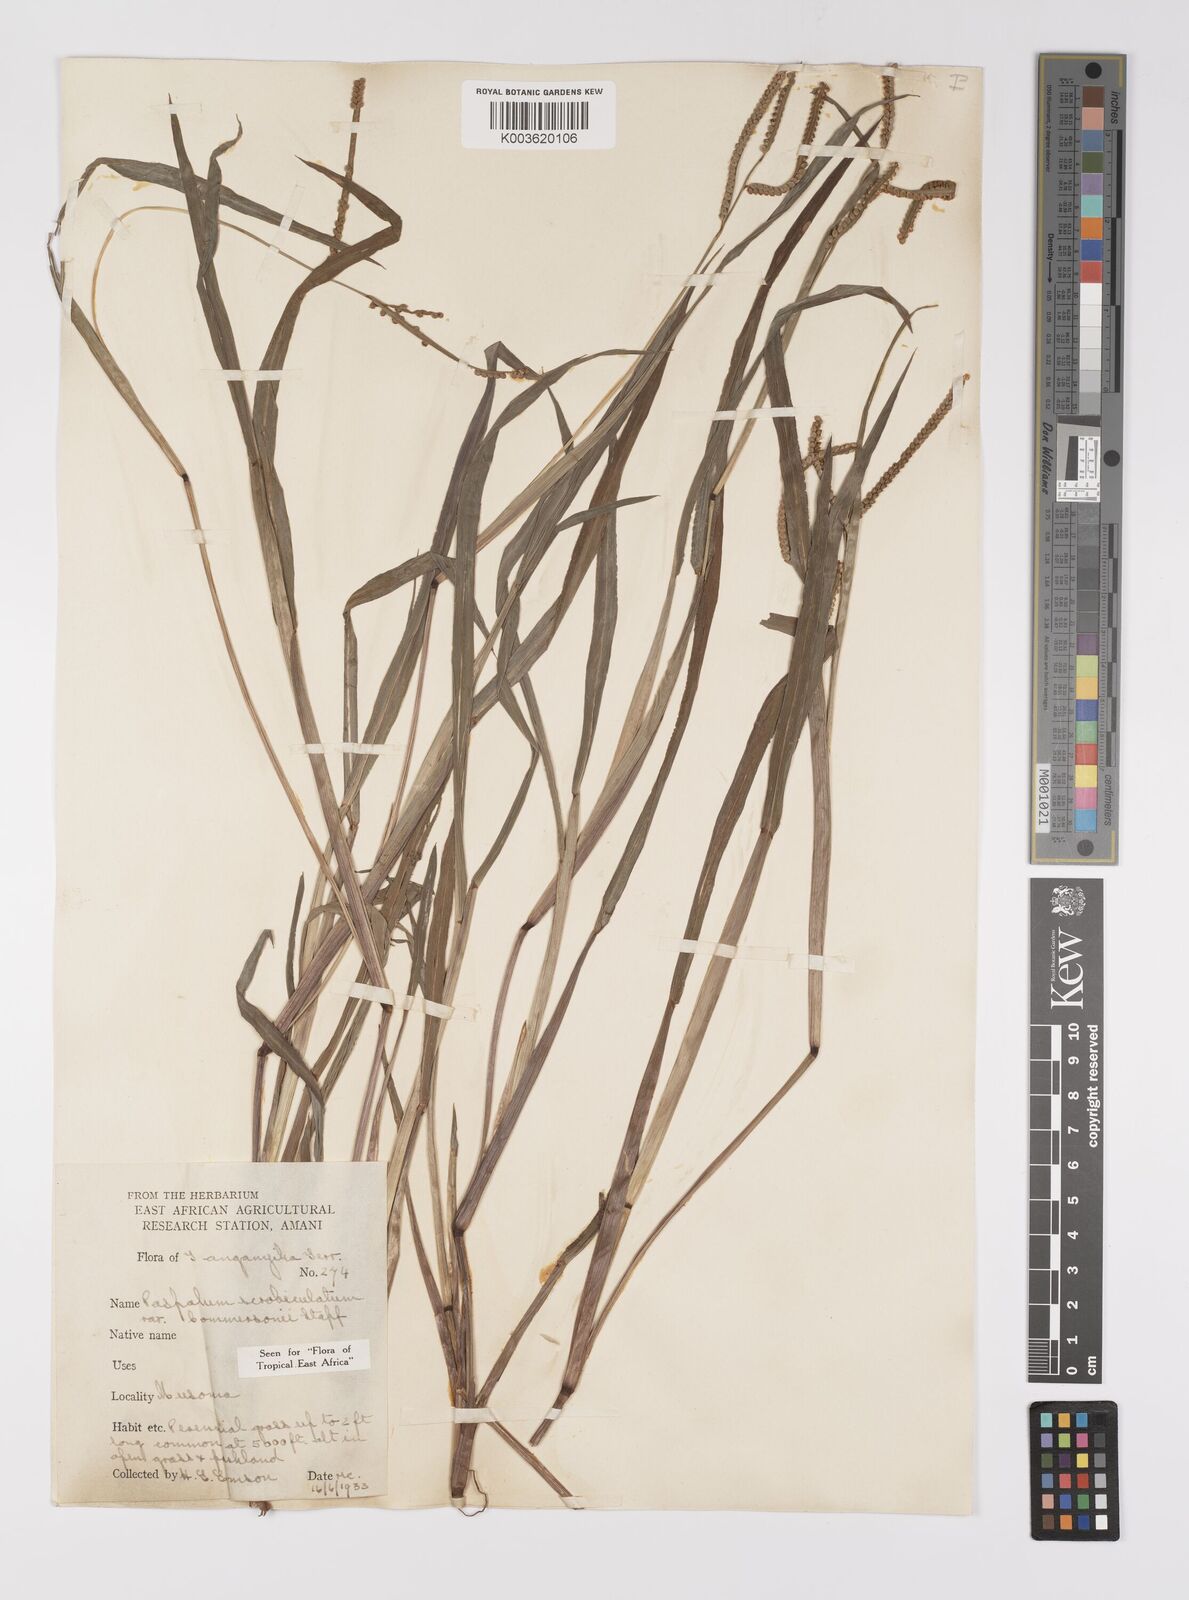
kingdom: Plantae
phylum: Tracheophyta
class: Liliopsida
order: Poales
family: Poaceae
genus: Paspalum
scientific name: Paspalum scrobiculatum
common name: Kodo millet
